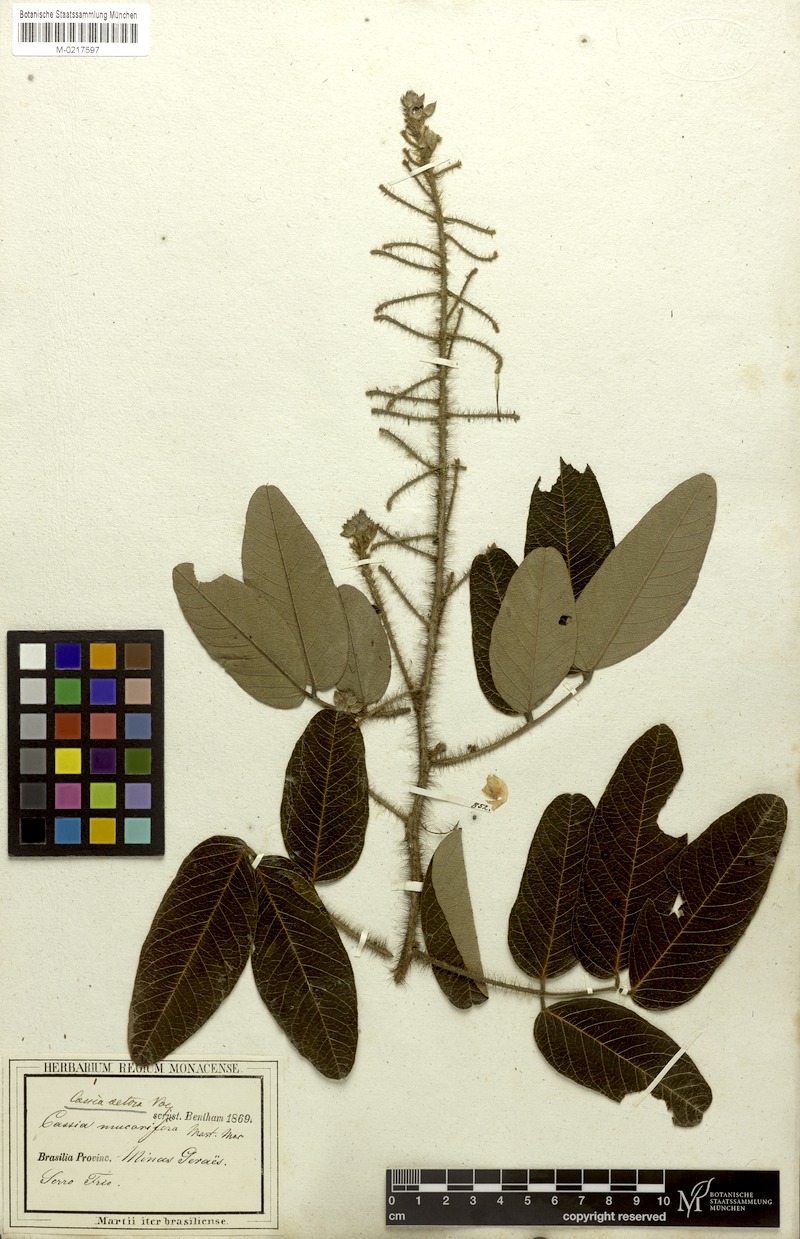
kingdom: Plantae
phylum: Tracheophyta
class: Magnoliopsida
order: Fabales
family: Fabaceae
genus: Chamaecrista
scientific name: Chamaecrista setosa
